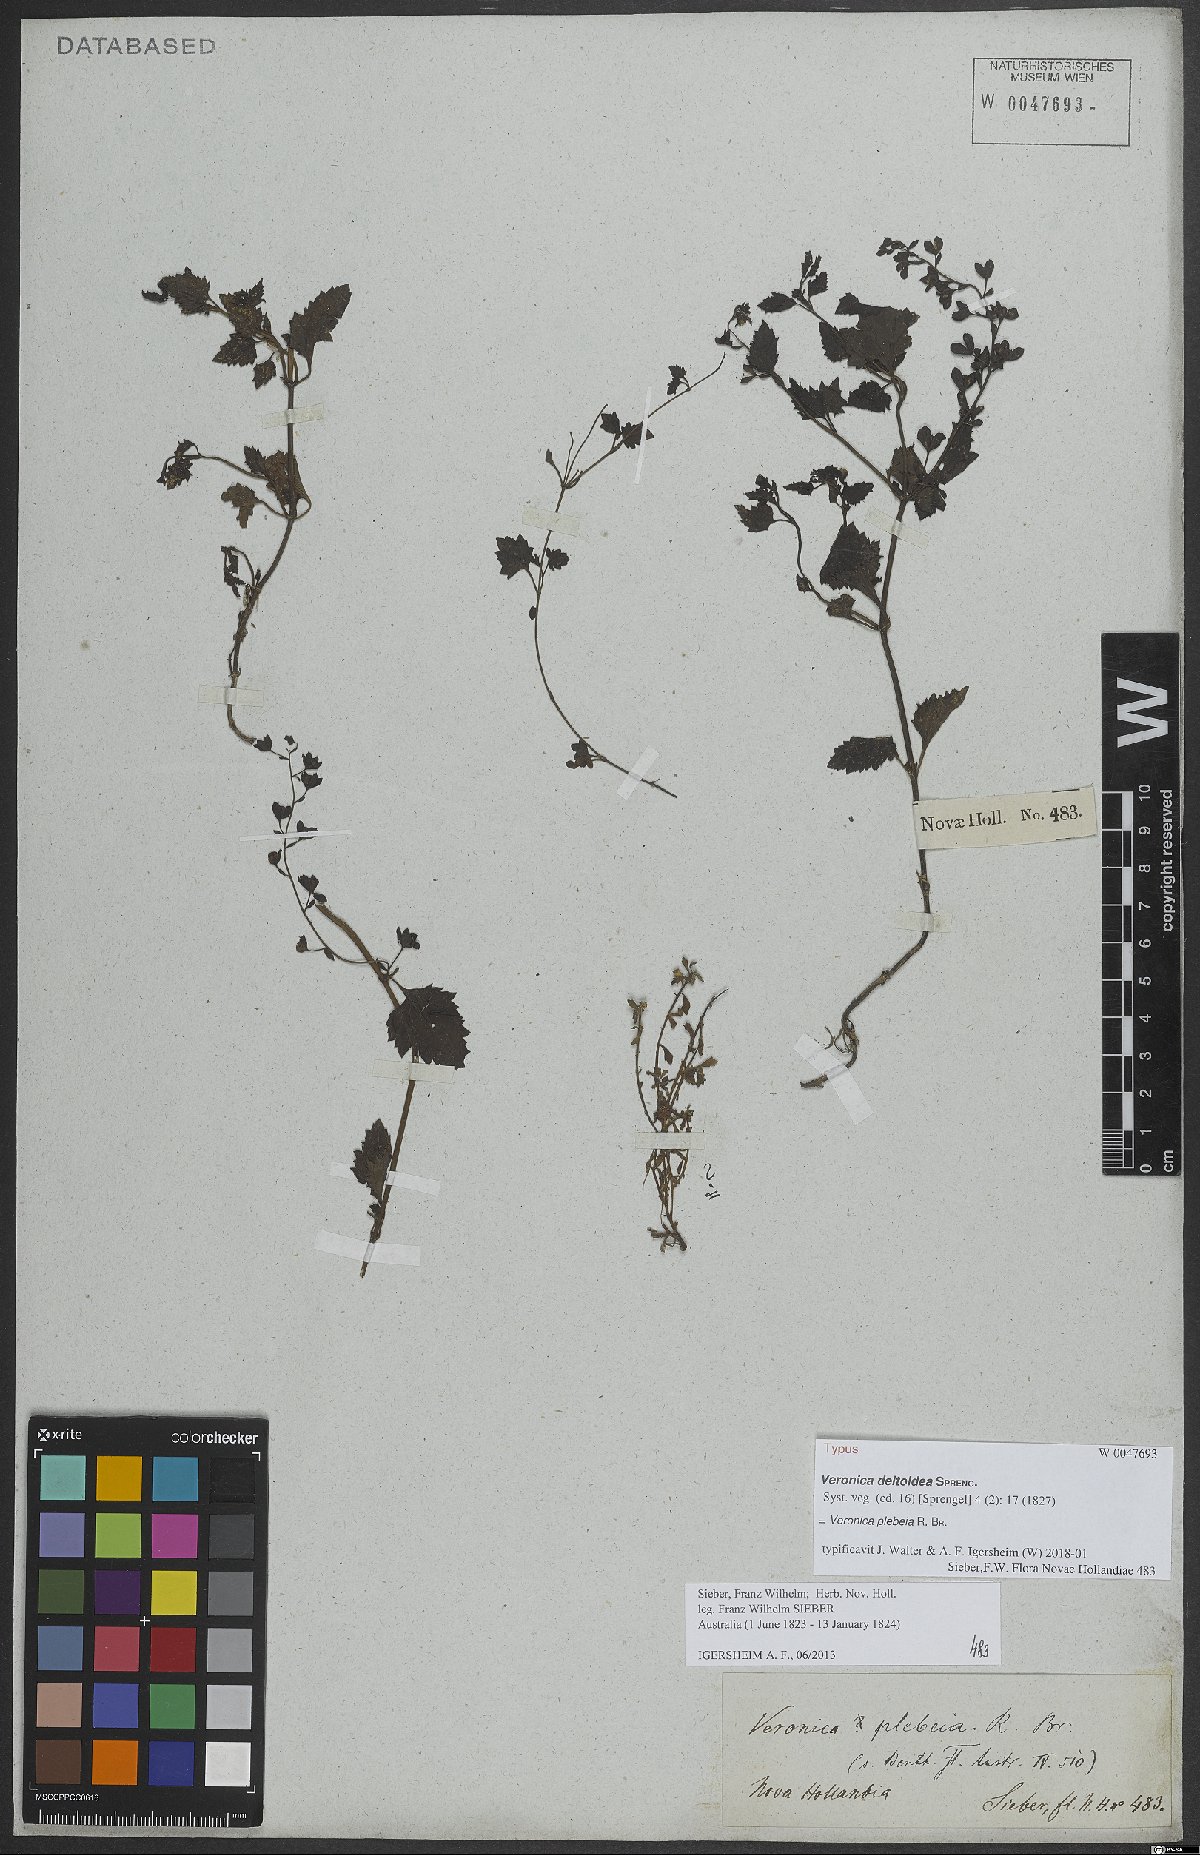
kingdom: Plantae
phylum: Tracheophyta
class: Magnoliopsida
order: Lamiales
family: Plantaginaceae
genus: Veronica
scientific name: Veronica plebeia
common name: Speedwell
